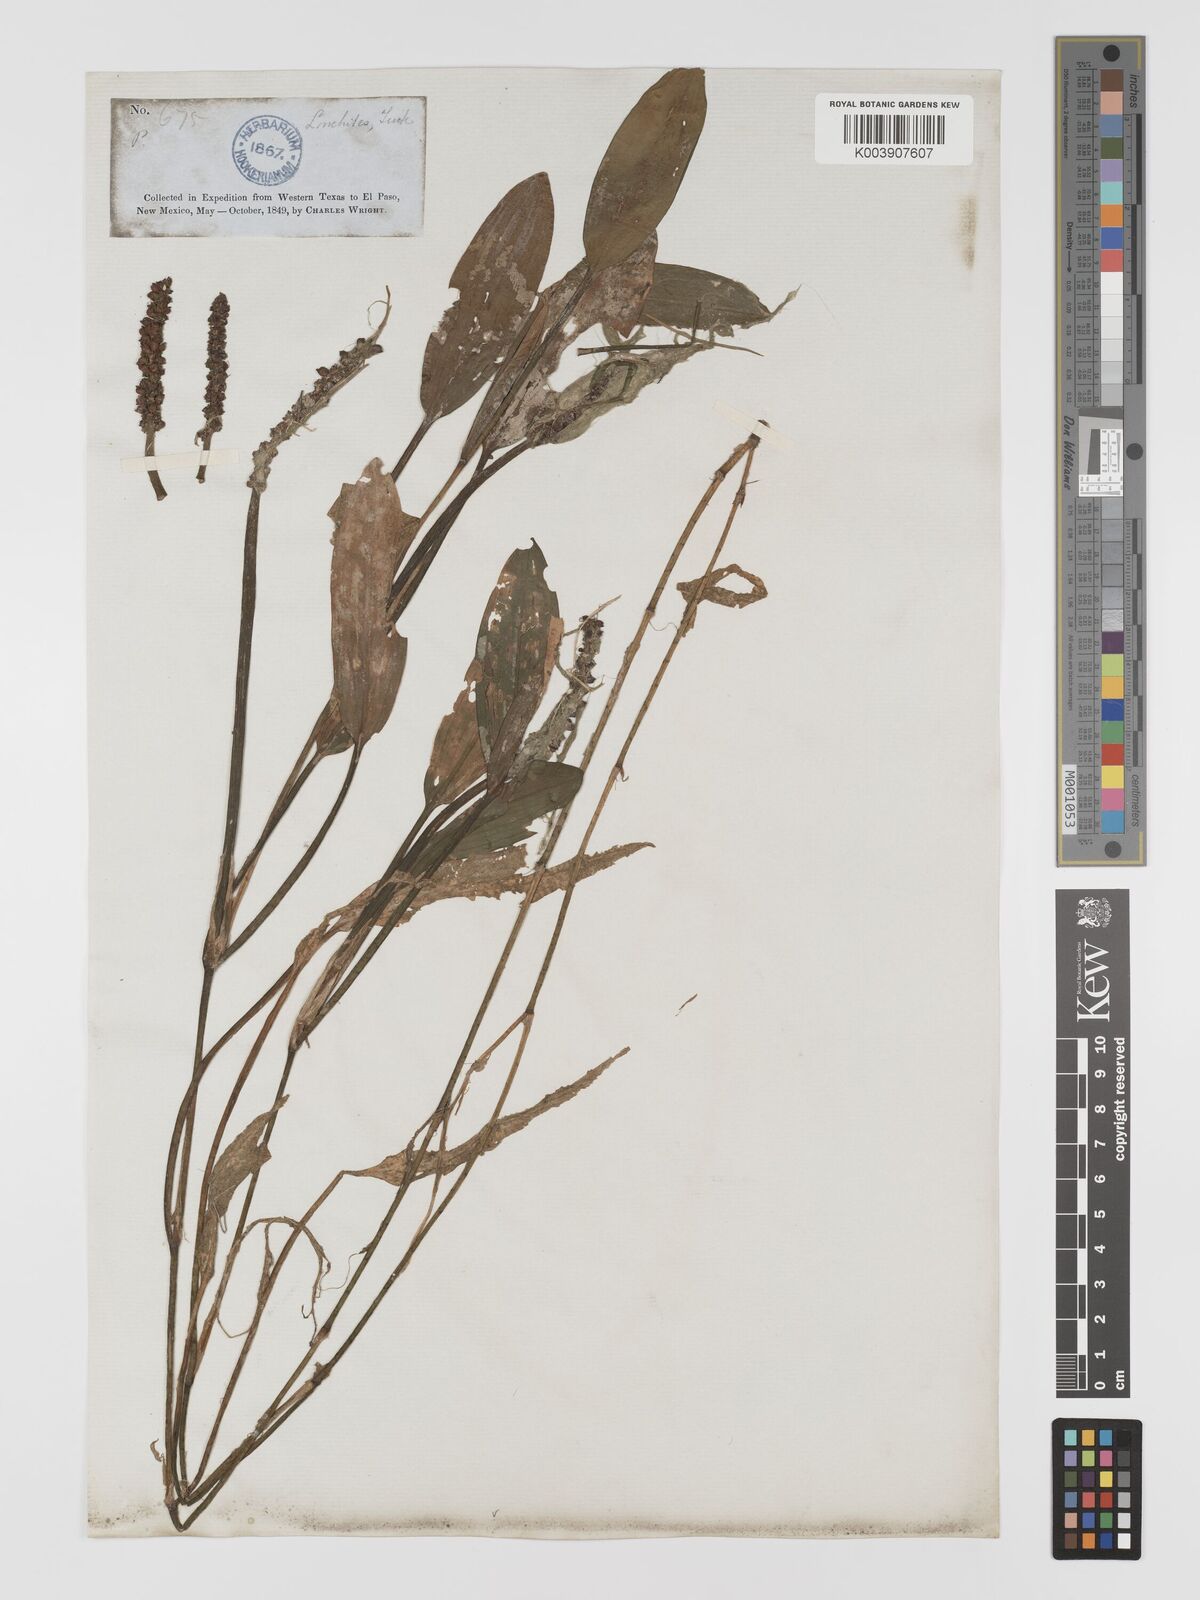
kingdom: Plantae
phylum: Tracheophyta
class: Liliopsida
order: Alismatales
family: Potamogetonaceae
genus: Potamogeton
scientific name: Potamogeton nodosus
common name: Loddon pondweed
